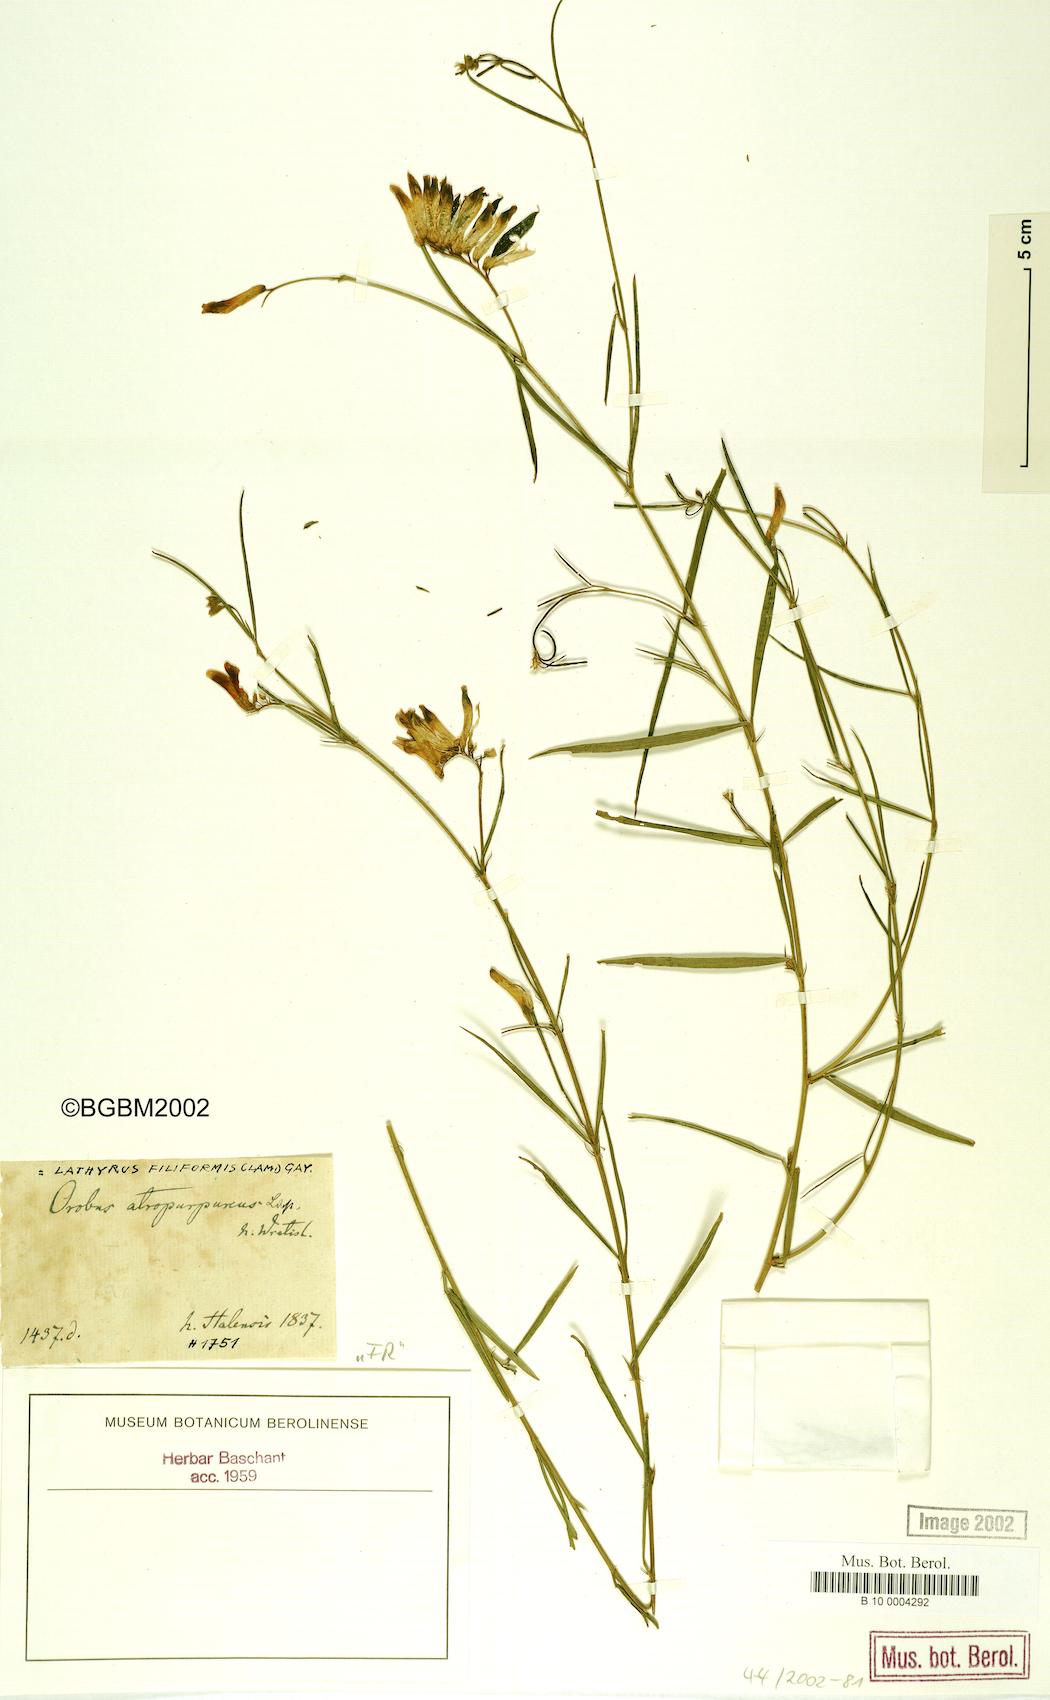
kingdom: Plantae
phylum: Tracheophyta
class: Magnoliopsida
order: Fabales
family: Fabaceae
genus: Lathyrus
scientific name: Lathyrus filiformis
